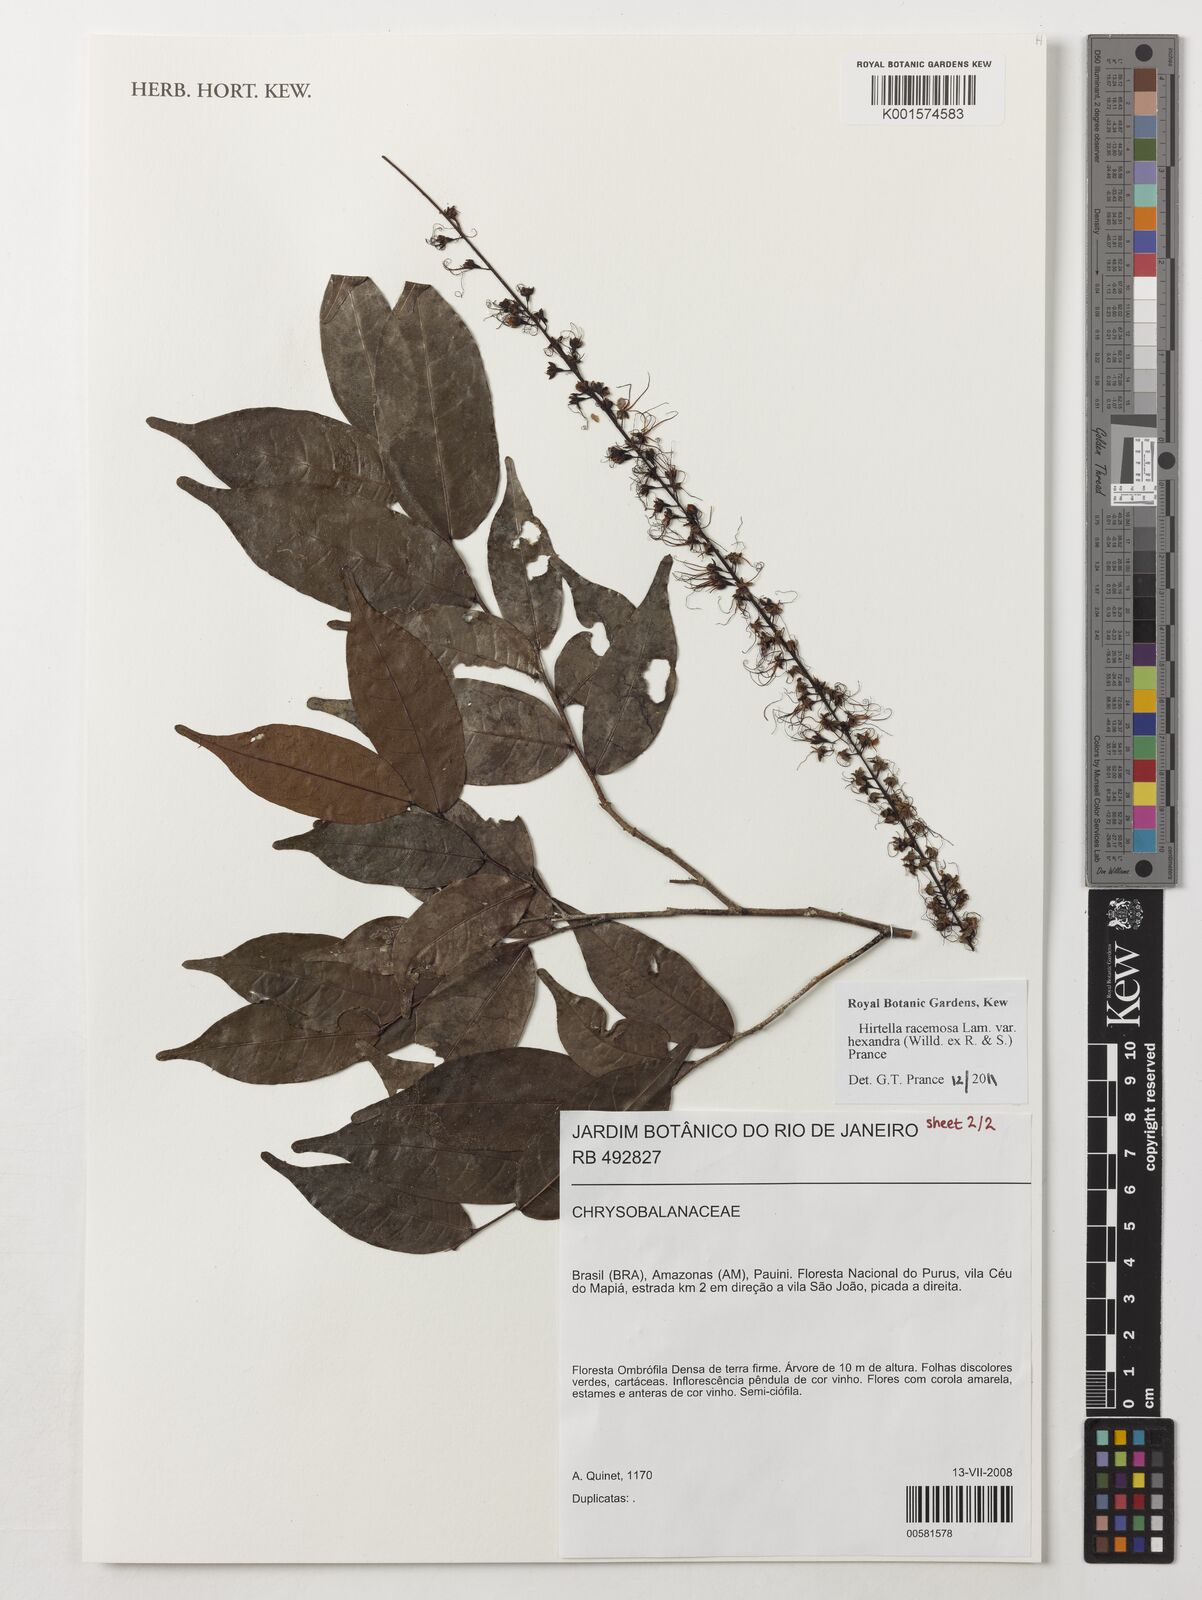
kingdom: Plantae
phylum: Tracheophyta
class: Magnoliopsida
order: Malpighiales
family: Chrysobalanaceae
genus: Hirtella
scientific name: Hirtella racemosa
